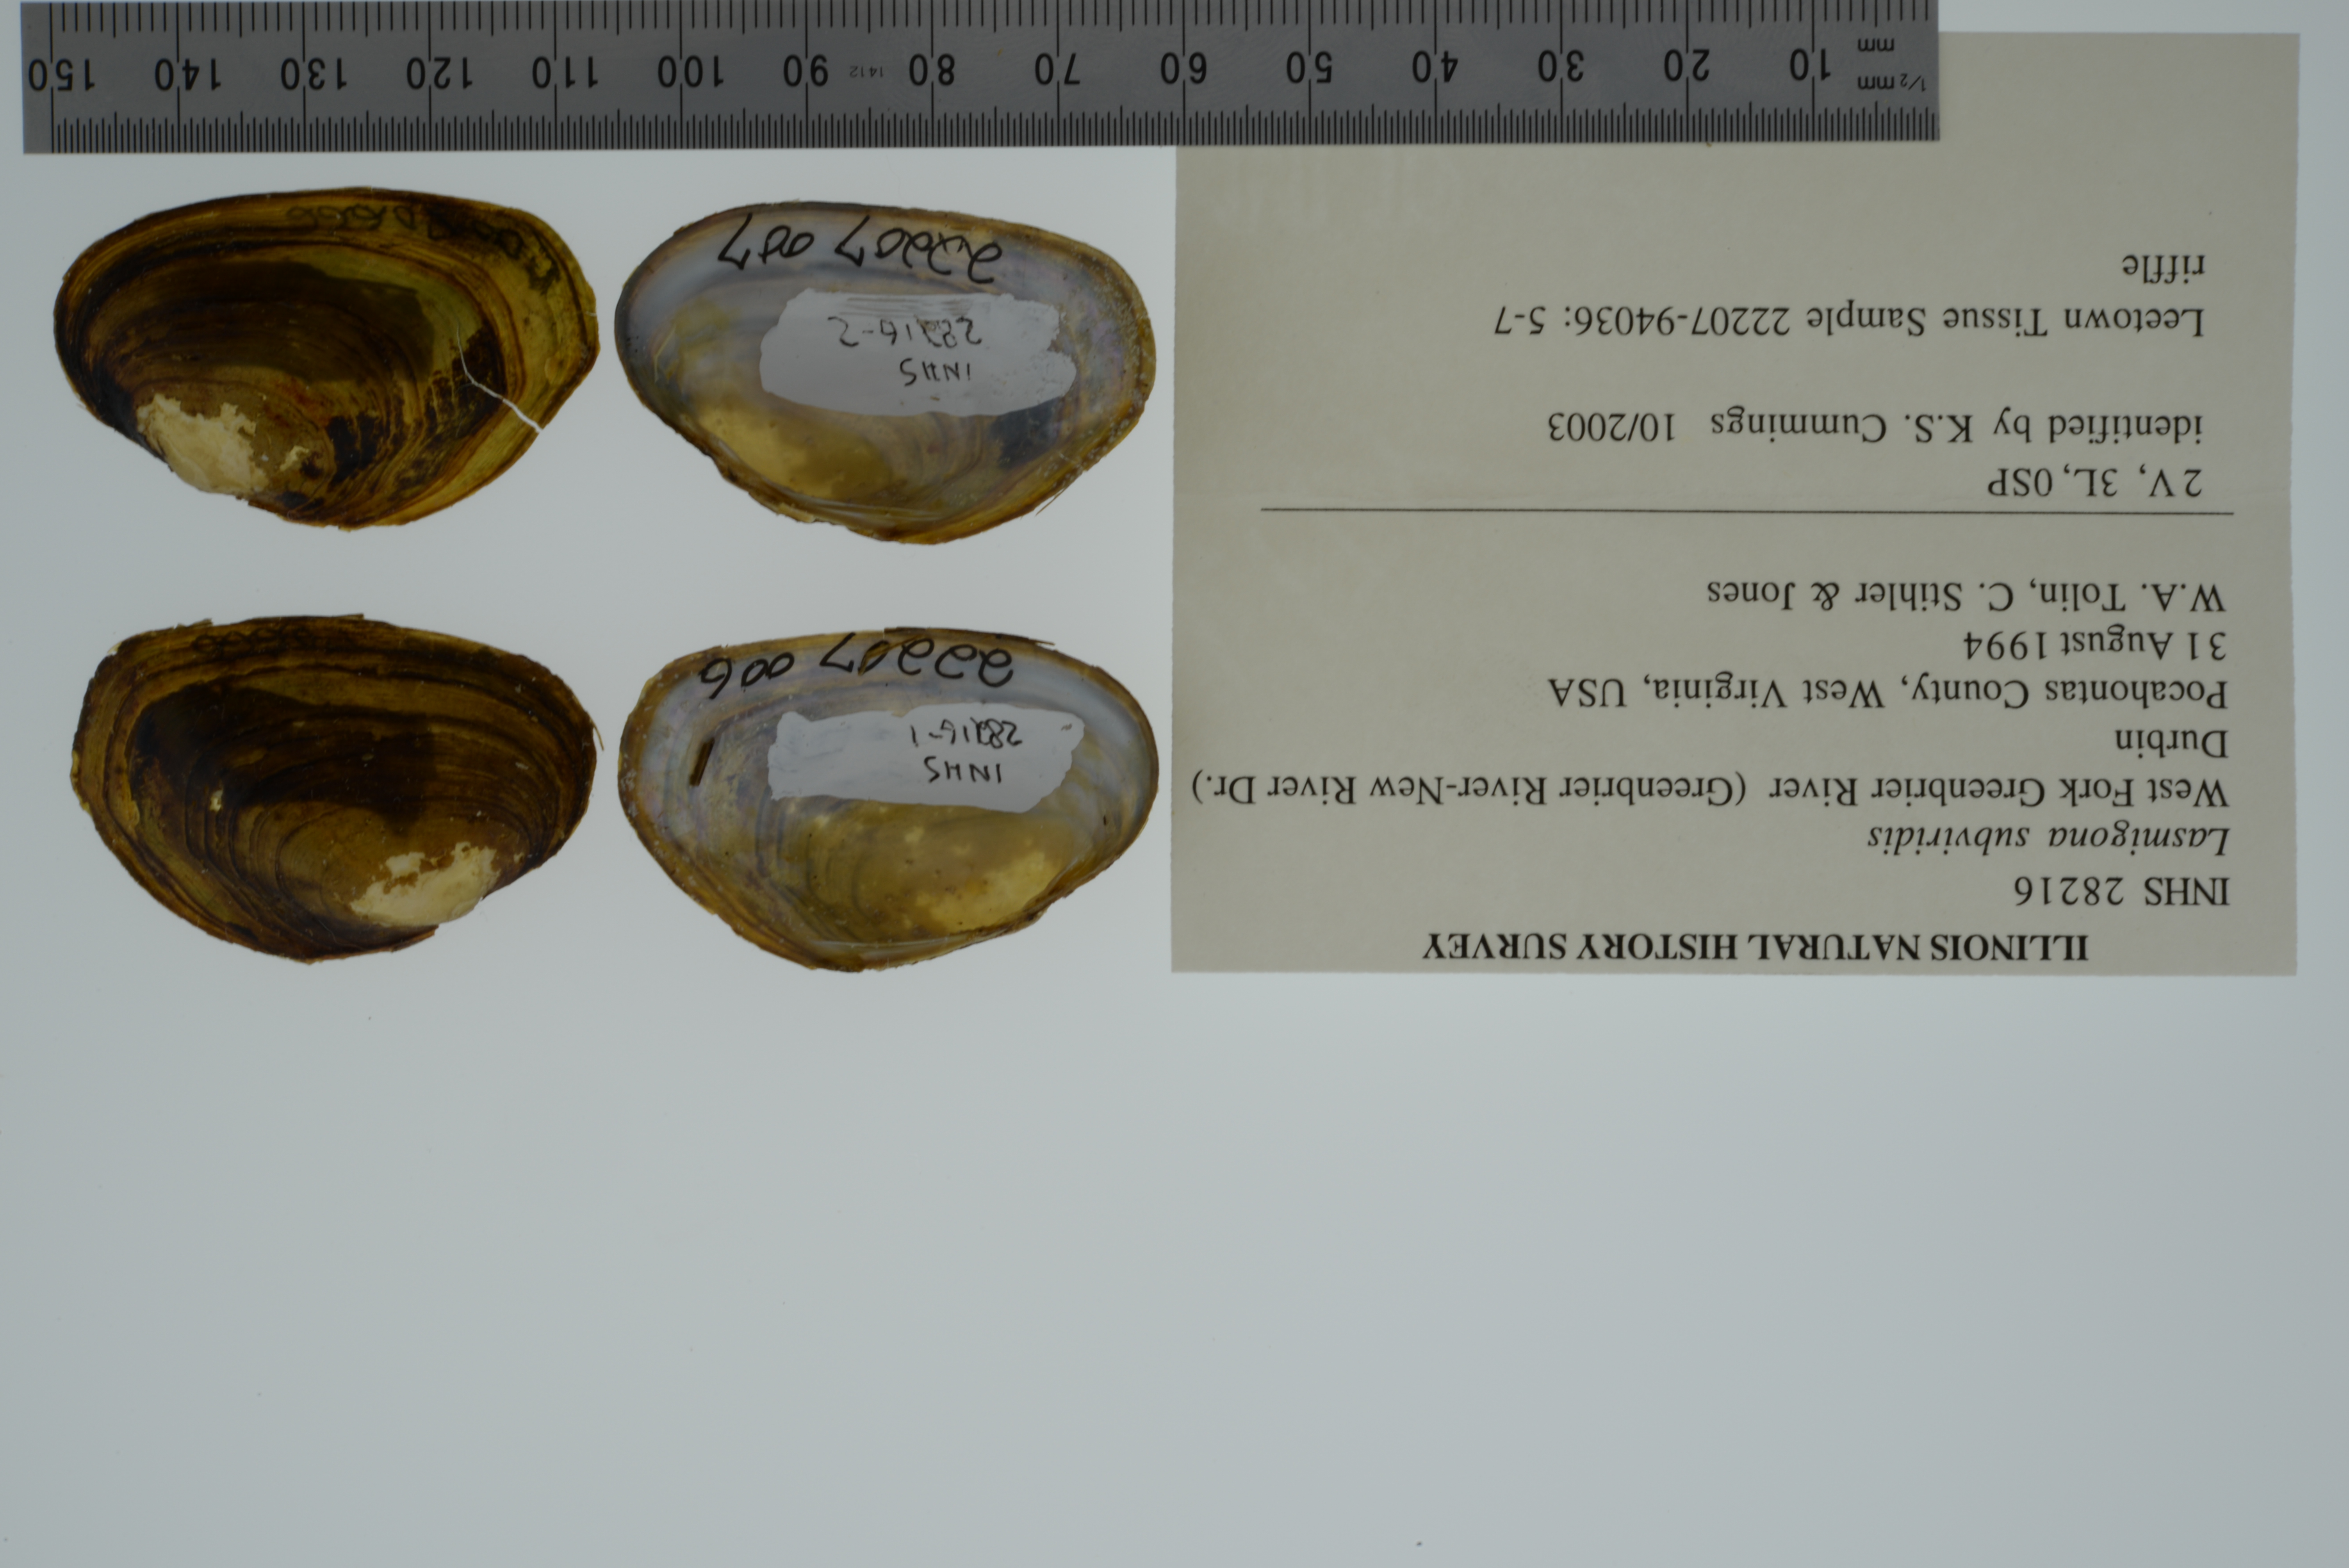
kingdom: Animalia
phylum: Mollusca
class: Bivalvia
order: Unionida
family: Unionidae
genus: Lasmigona
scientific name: Lasmigona subviridis
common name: Green floater
